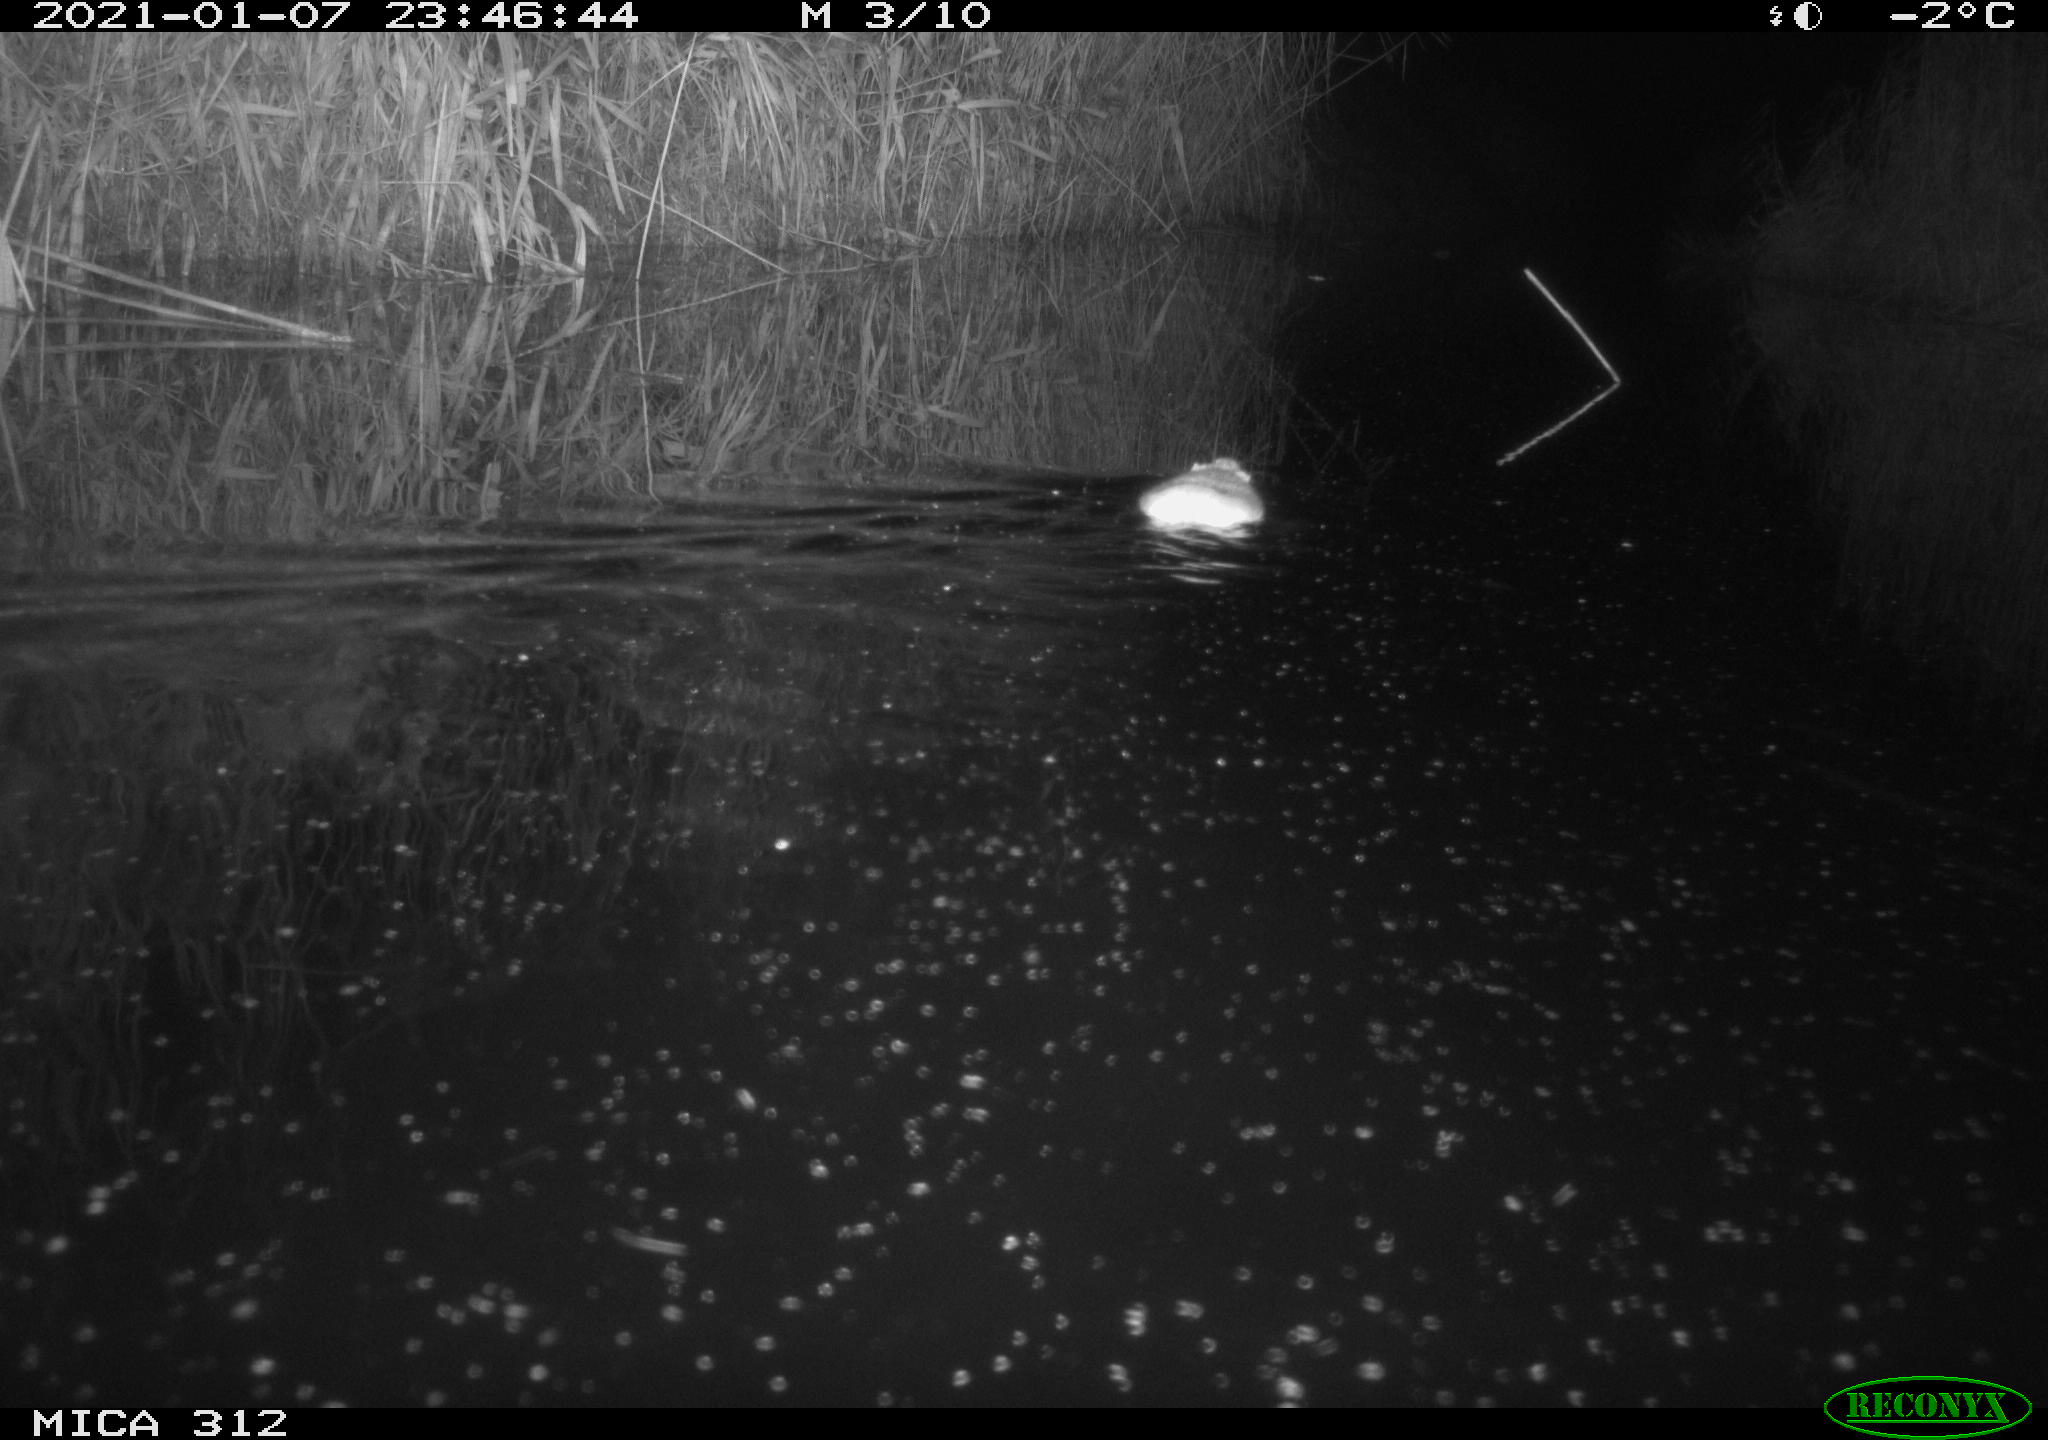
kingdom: Animalia
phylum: Chordata
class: Mammalia
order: Rodentia
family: Muridae
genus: Rattus
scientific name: Rattus norvegicus
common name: Brown rat
